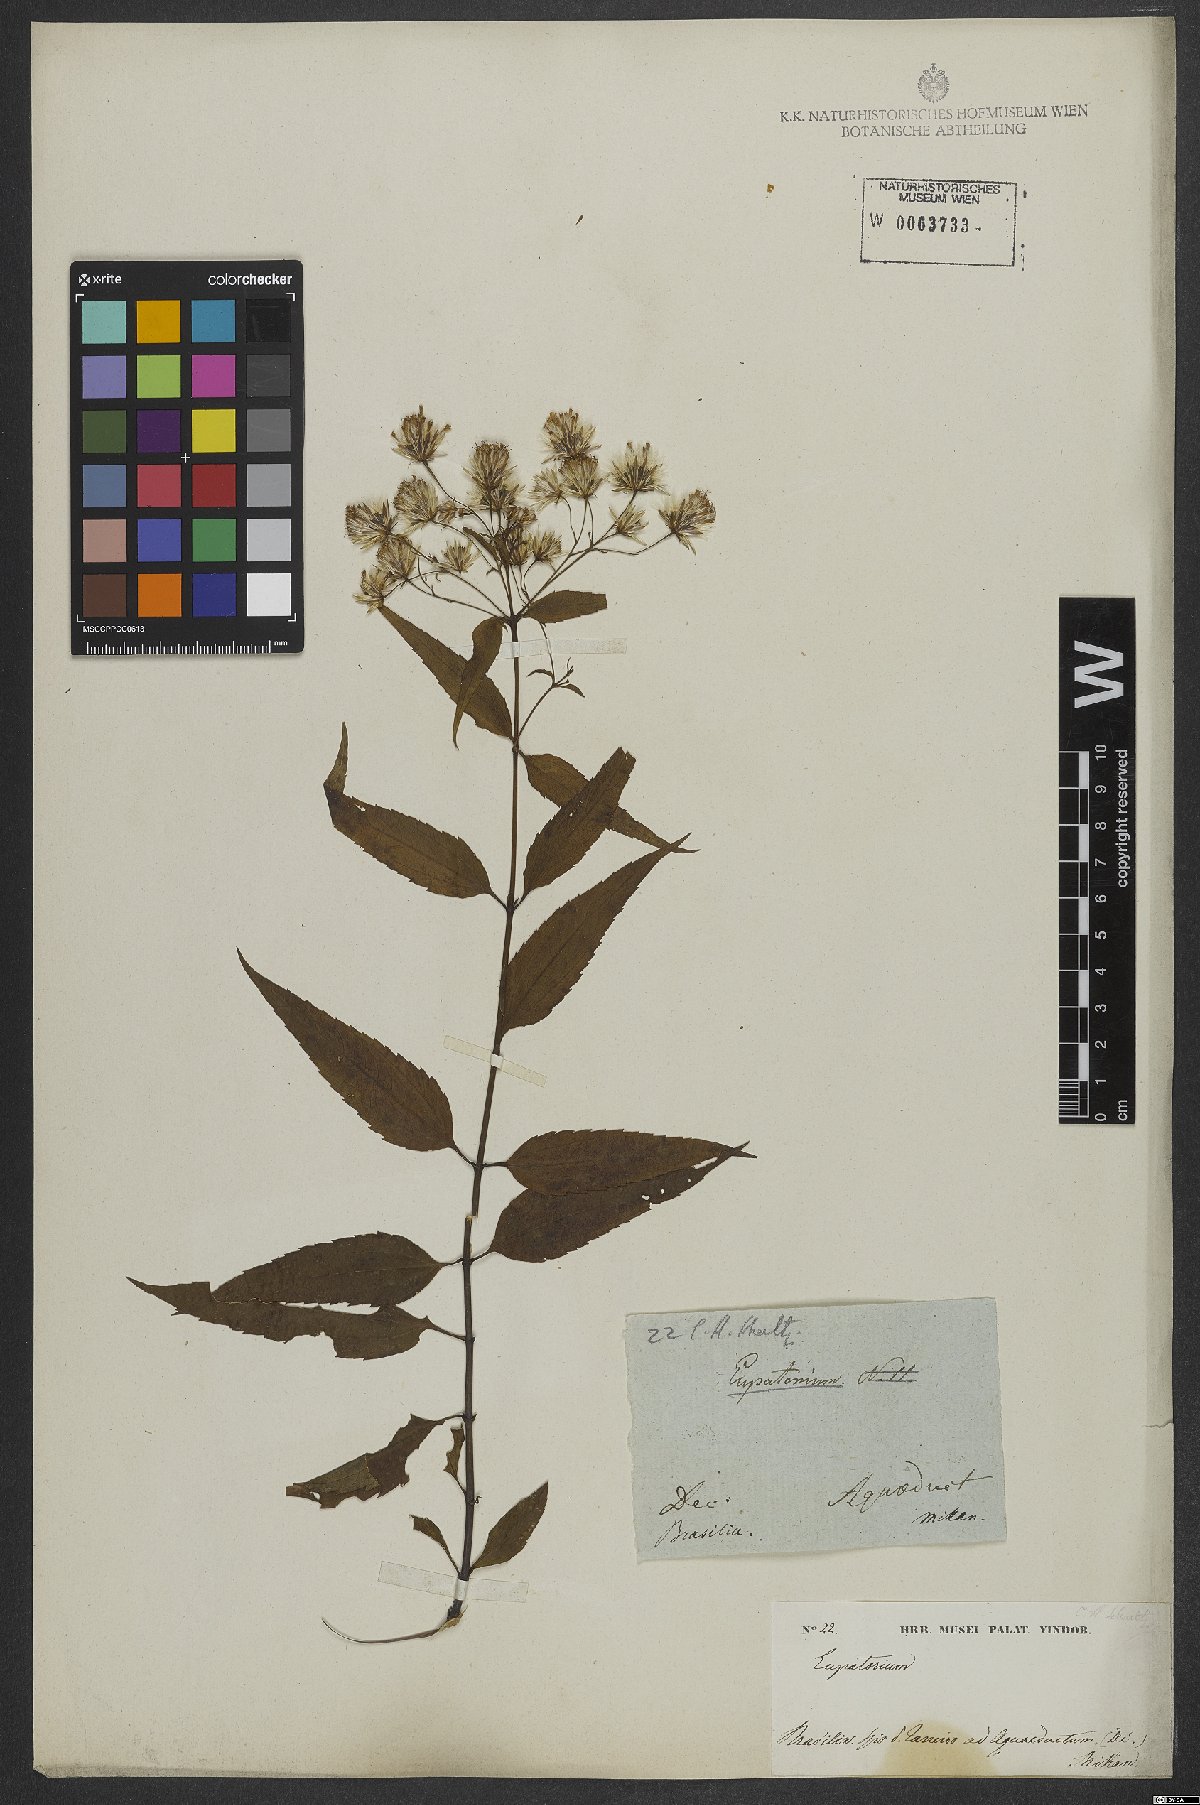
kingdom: Plantae
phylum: Tracheophyta
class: Magnoliopsida
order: Asterales
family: Asteraceae
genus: Heterocondylus
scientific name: Heterocondylus alatus
